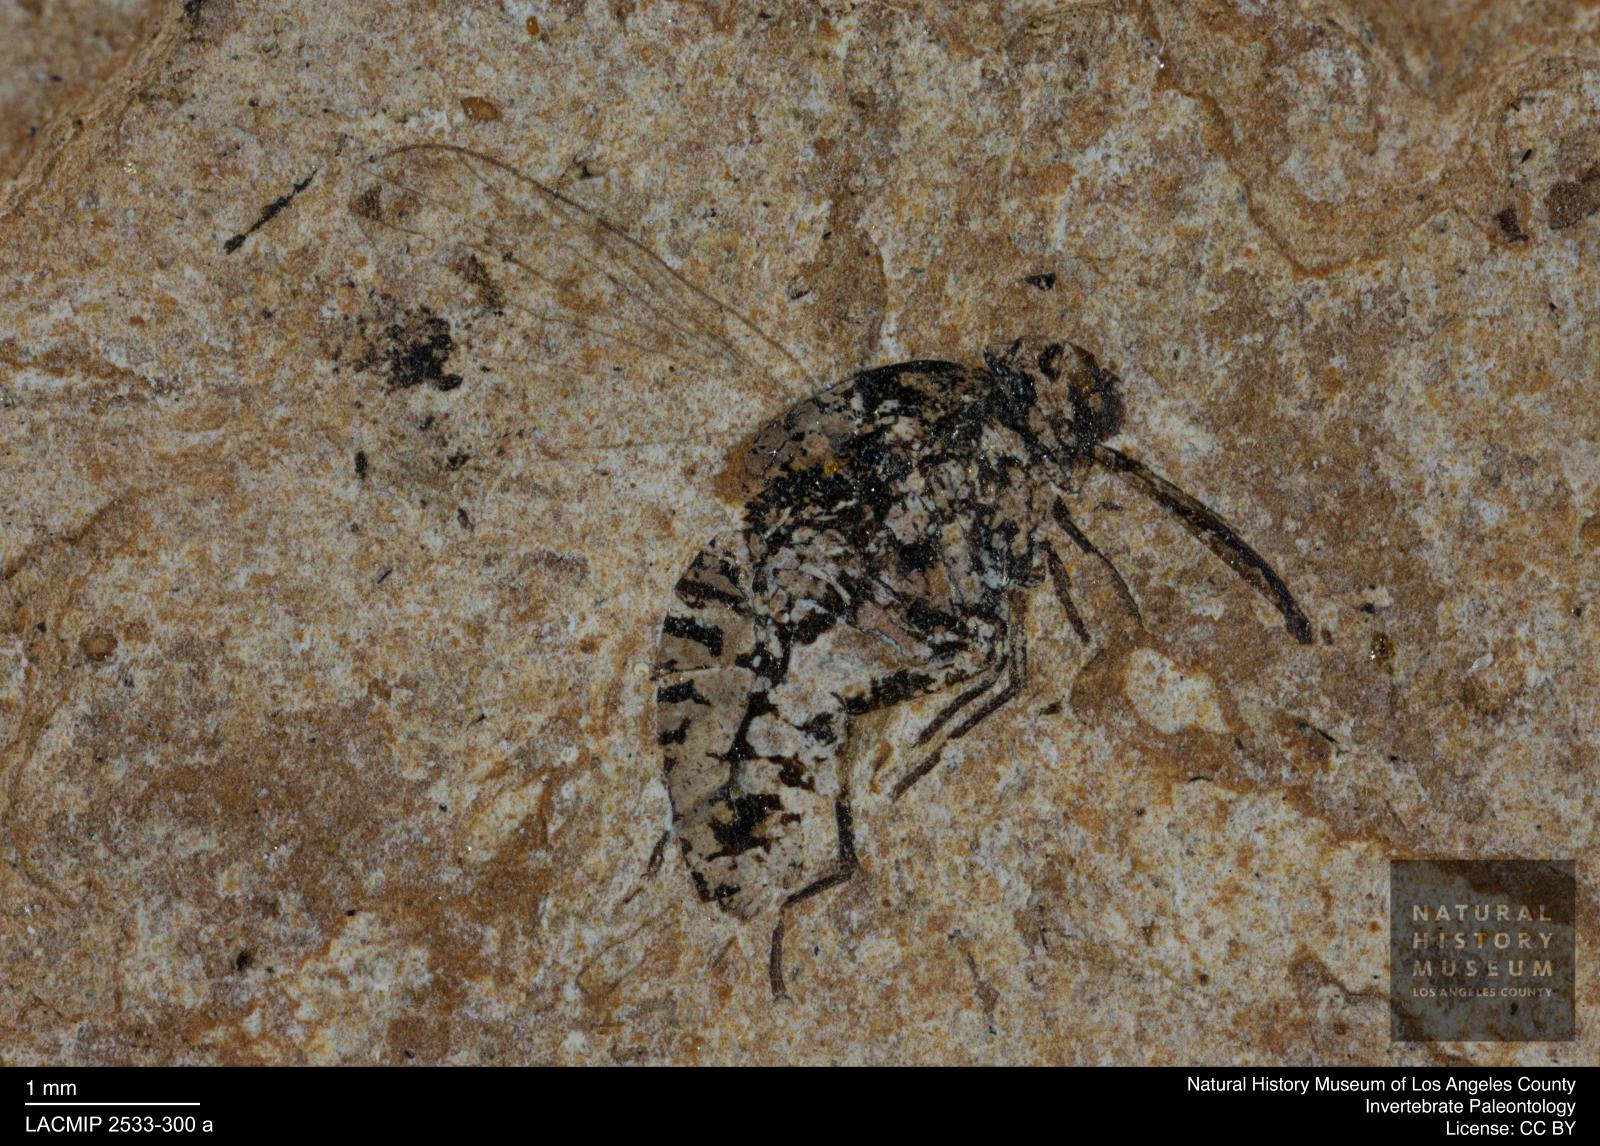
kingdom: Animalia
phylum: Arthropoda
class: Insecta
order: Diptera
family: Bombyliidae
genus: Usia
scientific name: Usia atra
